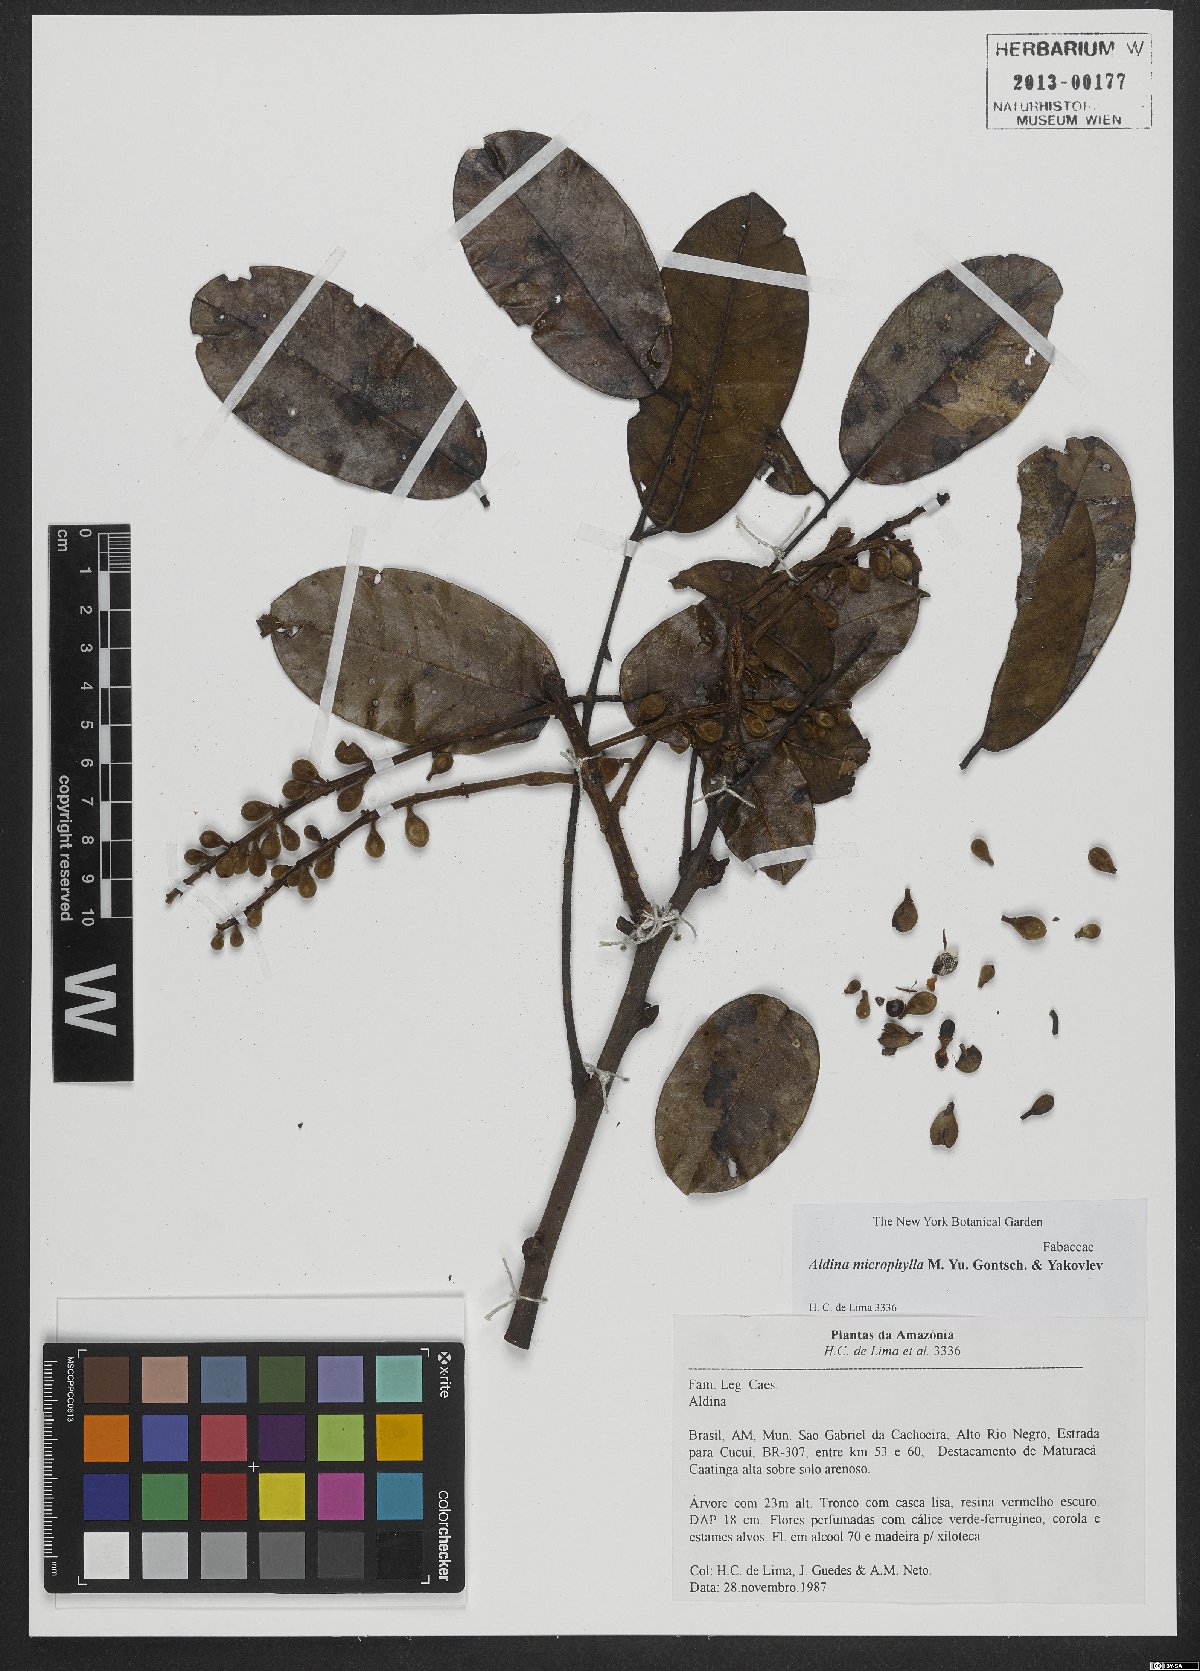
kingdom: Plantae
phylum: Tracheophyta
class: Magnoliopsida
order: Fabales
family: Fabaceae
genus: Aldina
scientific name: Aldina microphylla
